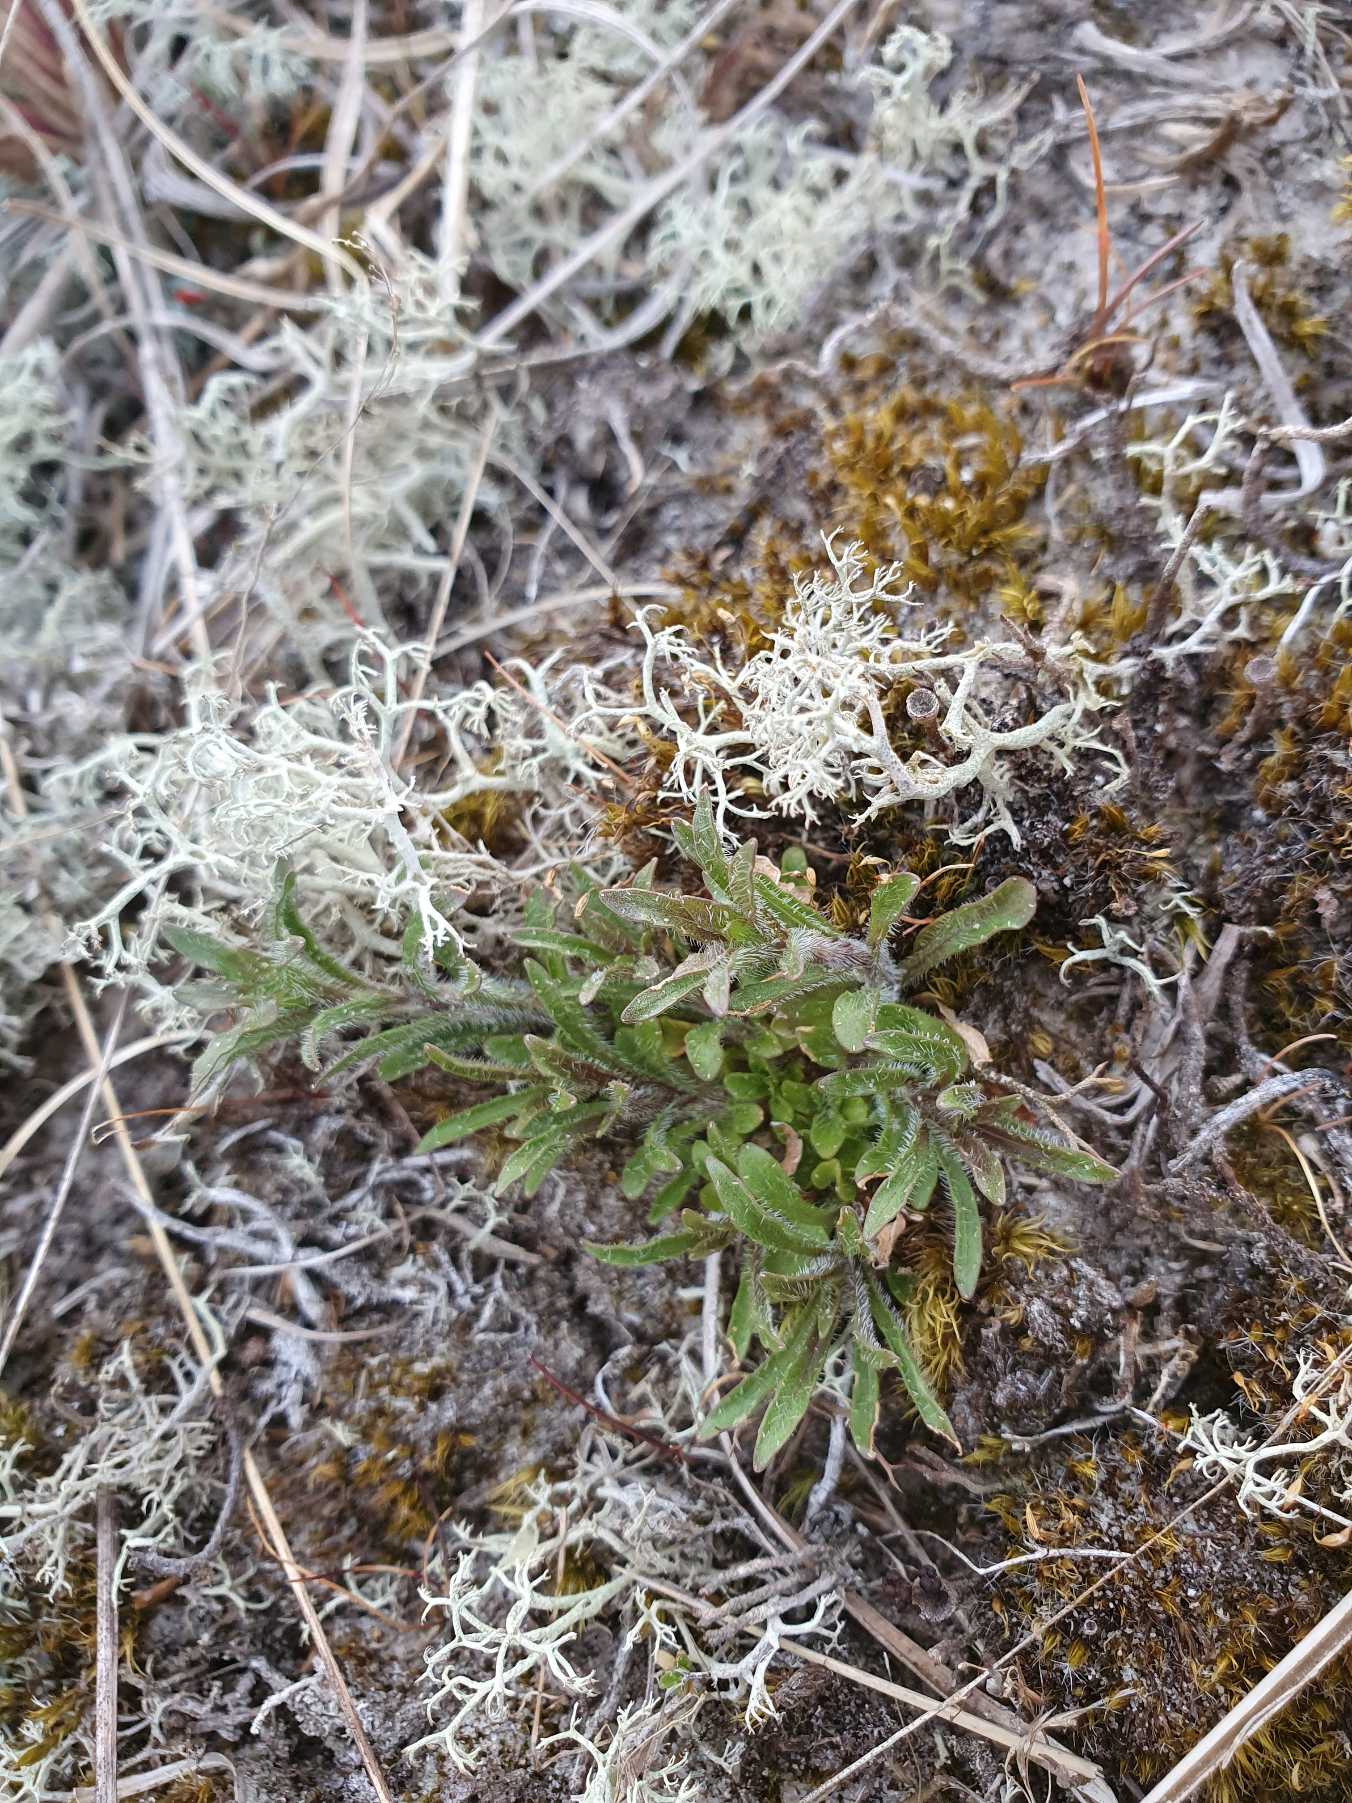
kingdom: Plantae
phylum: Tracheophyta
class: Magnoliopsida
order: Asterales
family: Campanulaceae
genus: Jasione
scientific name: Jasione montana
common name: Blåmunke
